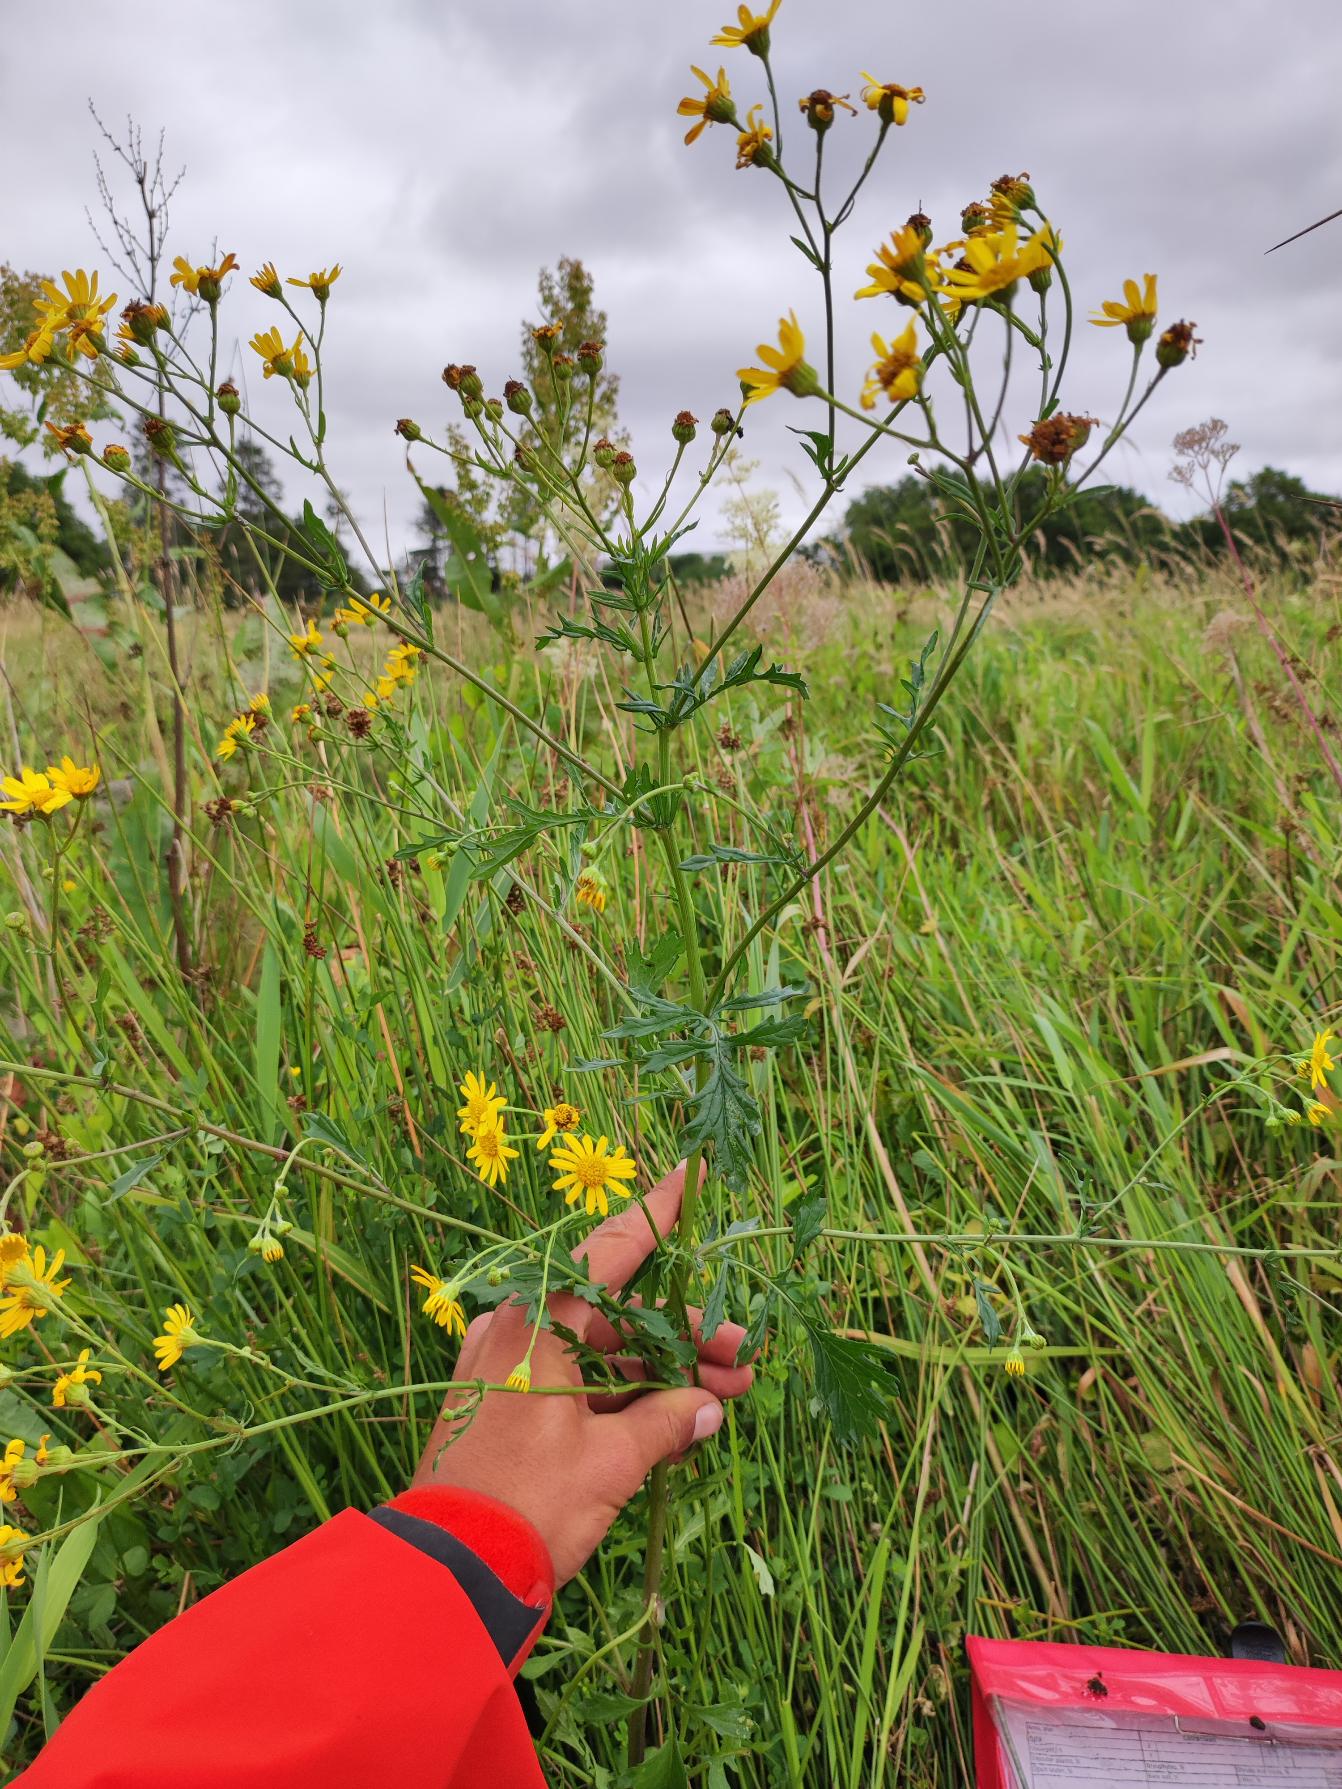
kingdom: Plantae
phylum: Tracheophyta
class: Magnoliopsida
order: Asterales
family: Asteraceae
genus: Jacobaea
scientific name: Jacobaea erratica
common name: Småblomstret brandbæger
